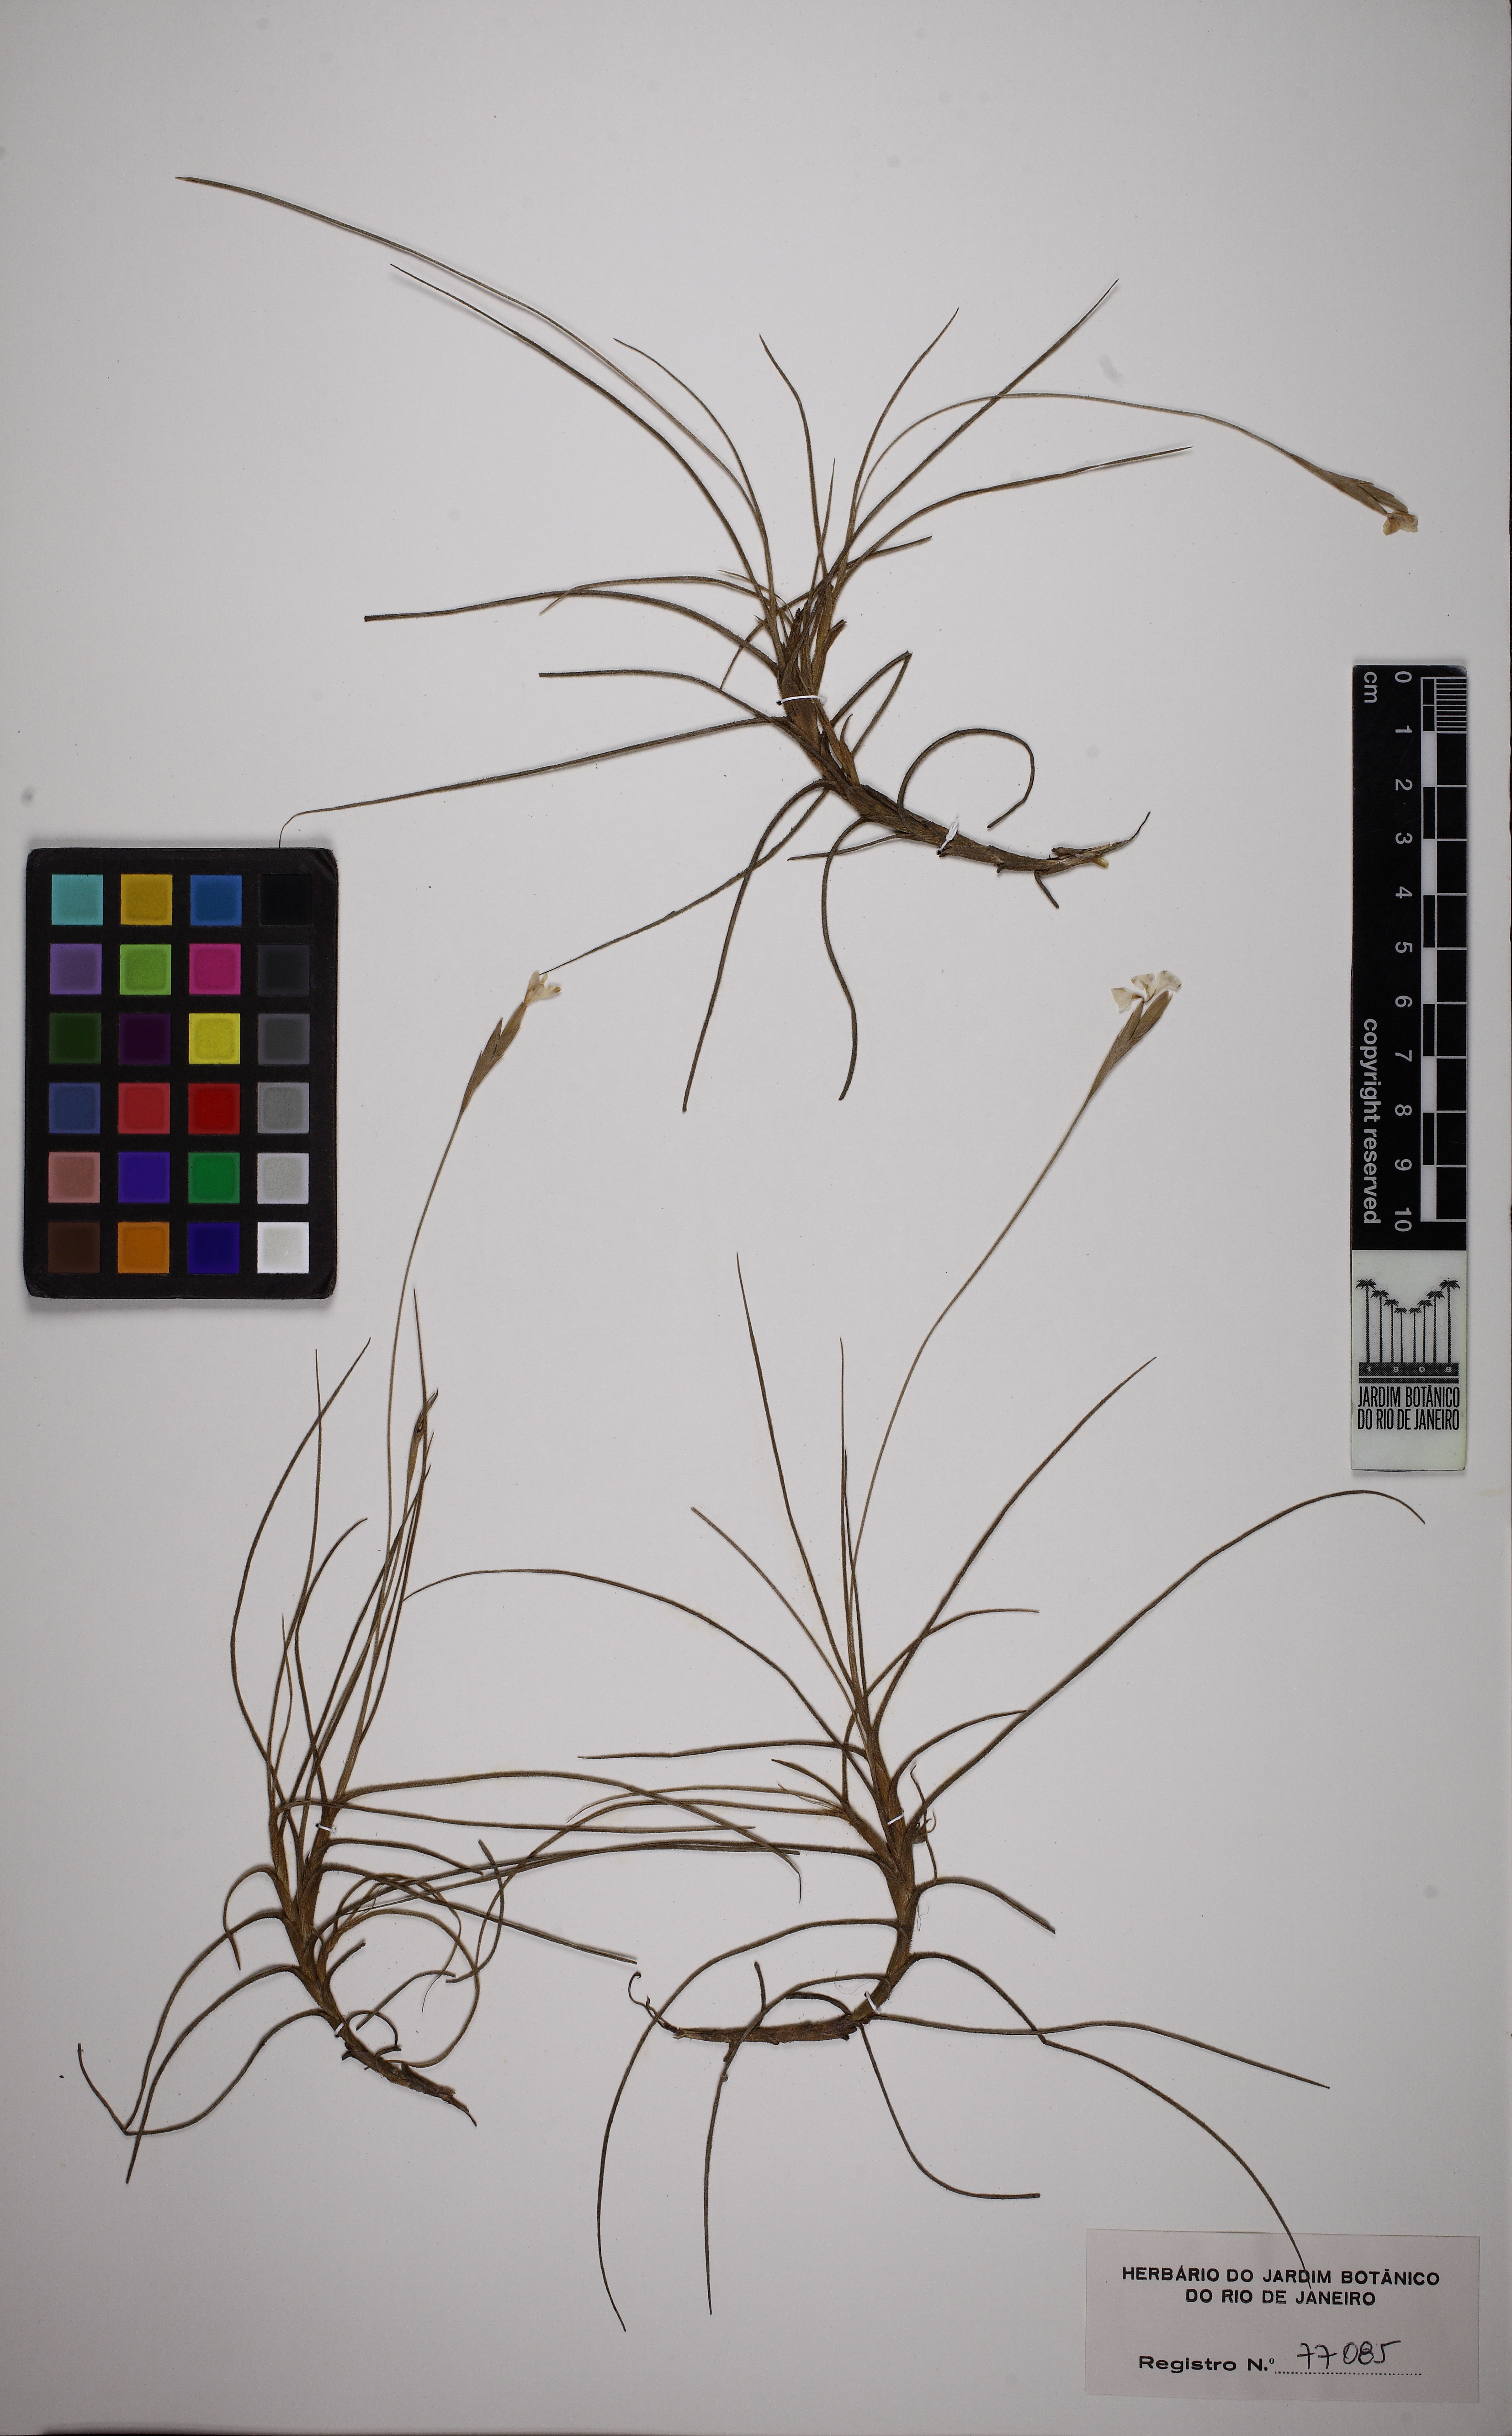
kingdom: Plantae
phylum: Tracheophyta
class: Liliopsida
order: Poales
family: Bromeliaceae
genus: Tillandsia
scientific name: Tillandsia mallemontii
